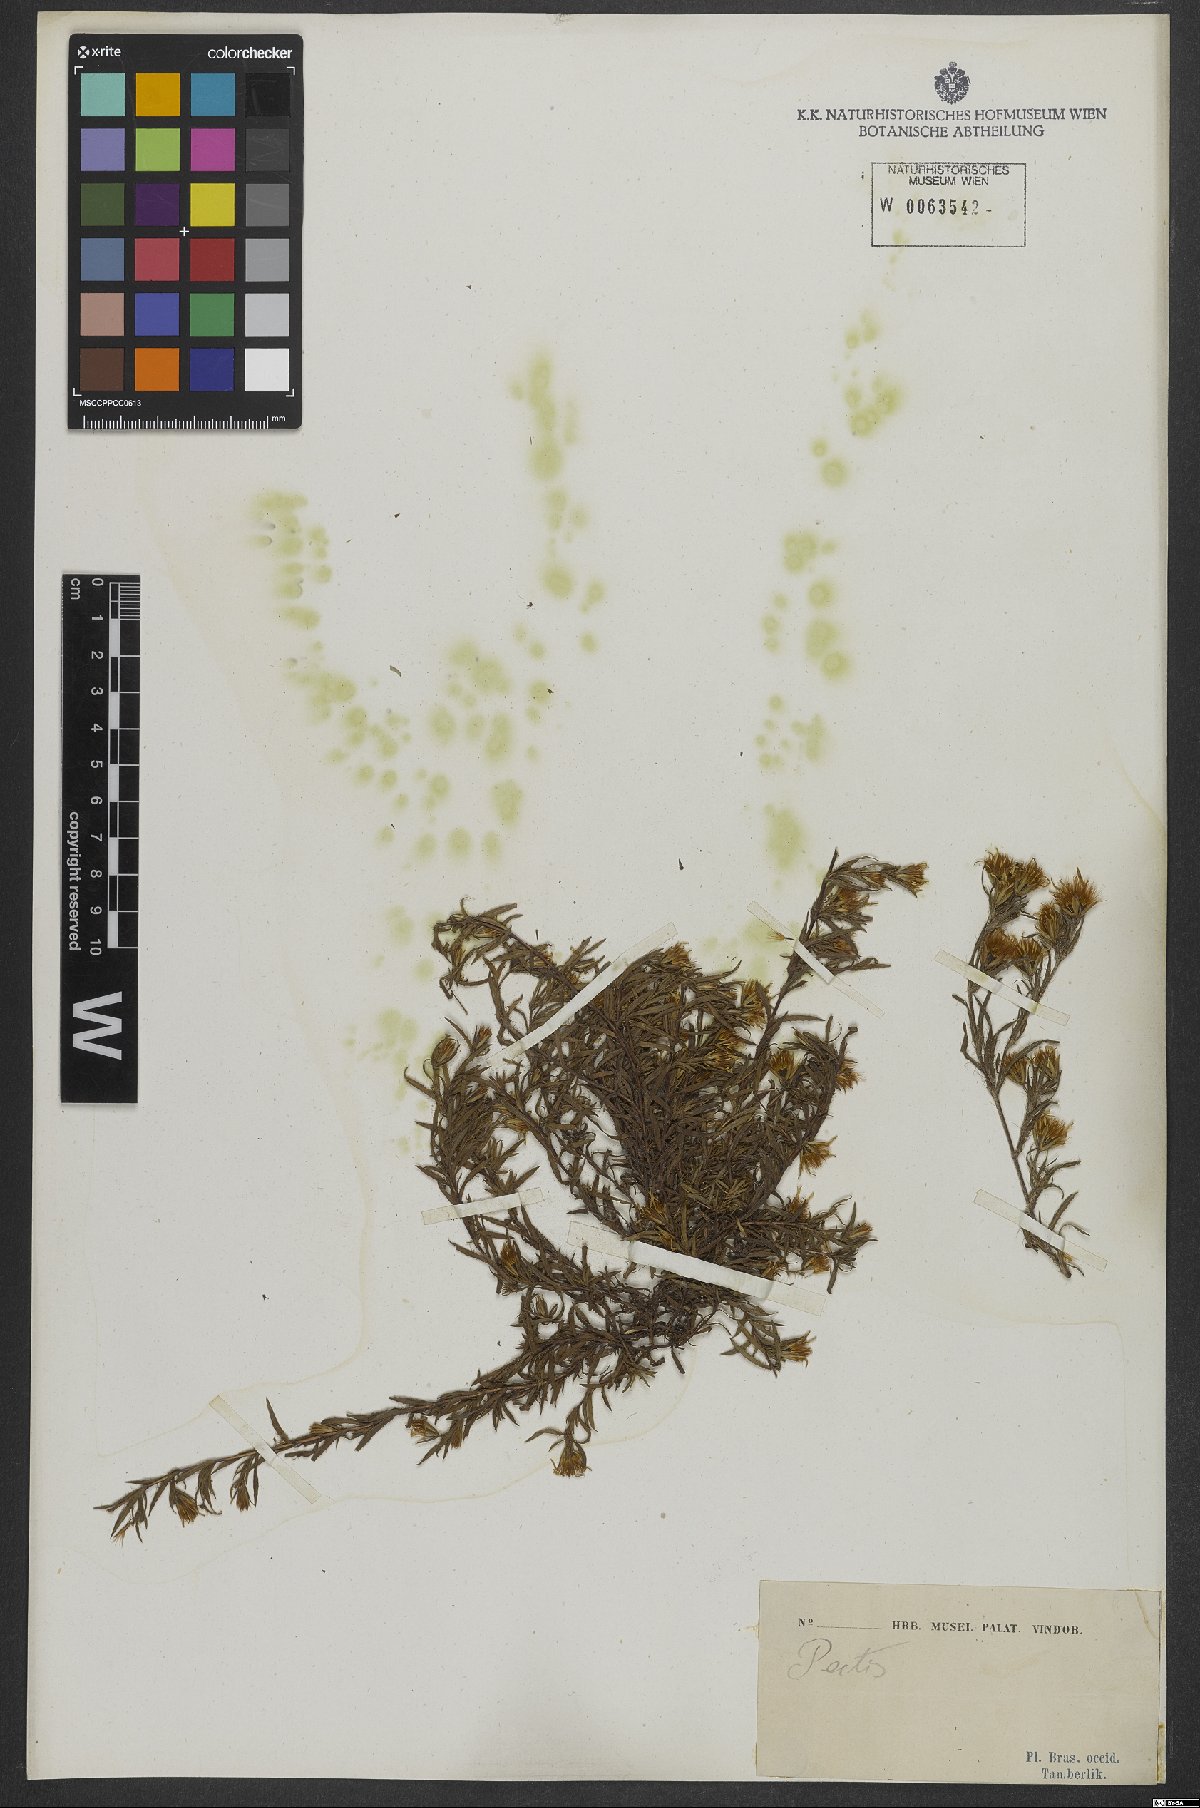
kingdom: Plantae
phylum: Tracheophyta
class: Magnoliopsida
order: Asterales
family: Asteraceae
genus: Pectis
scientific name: Pectis prostrata
